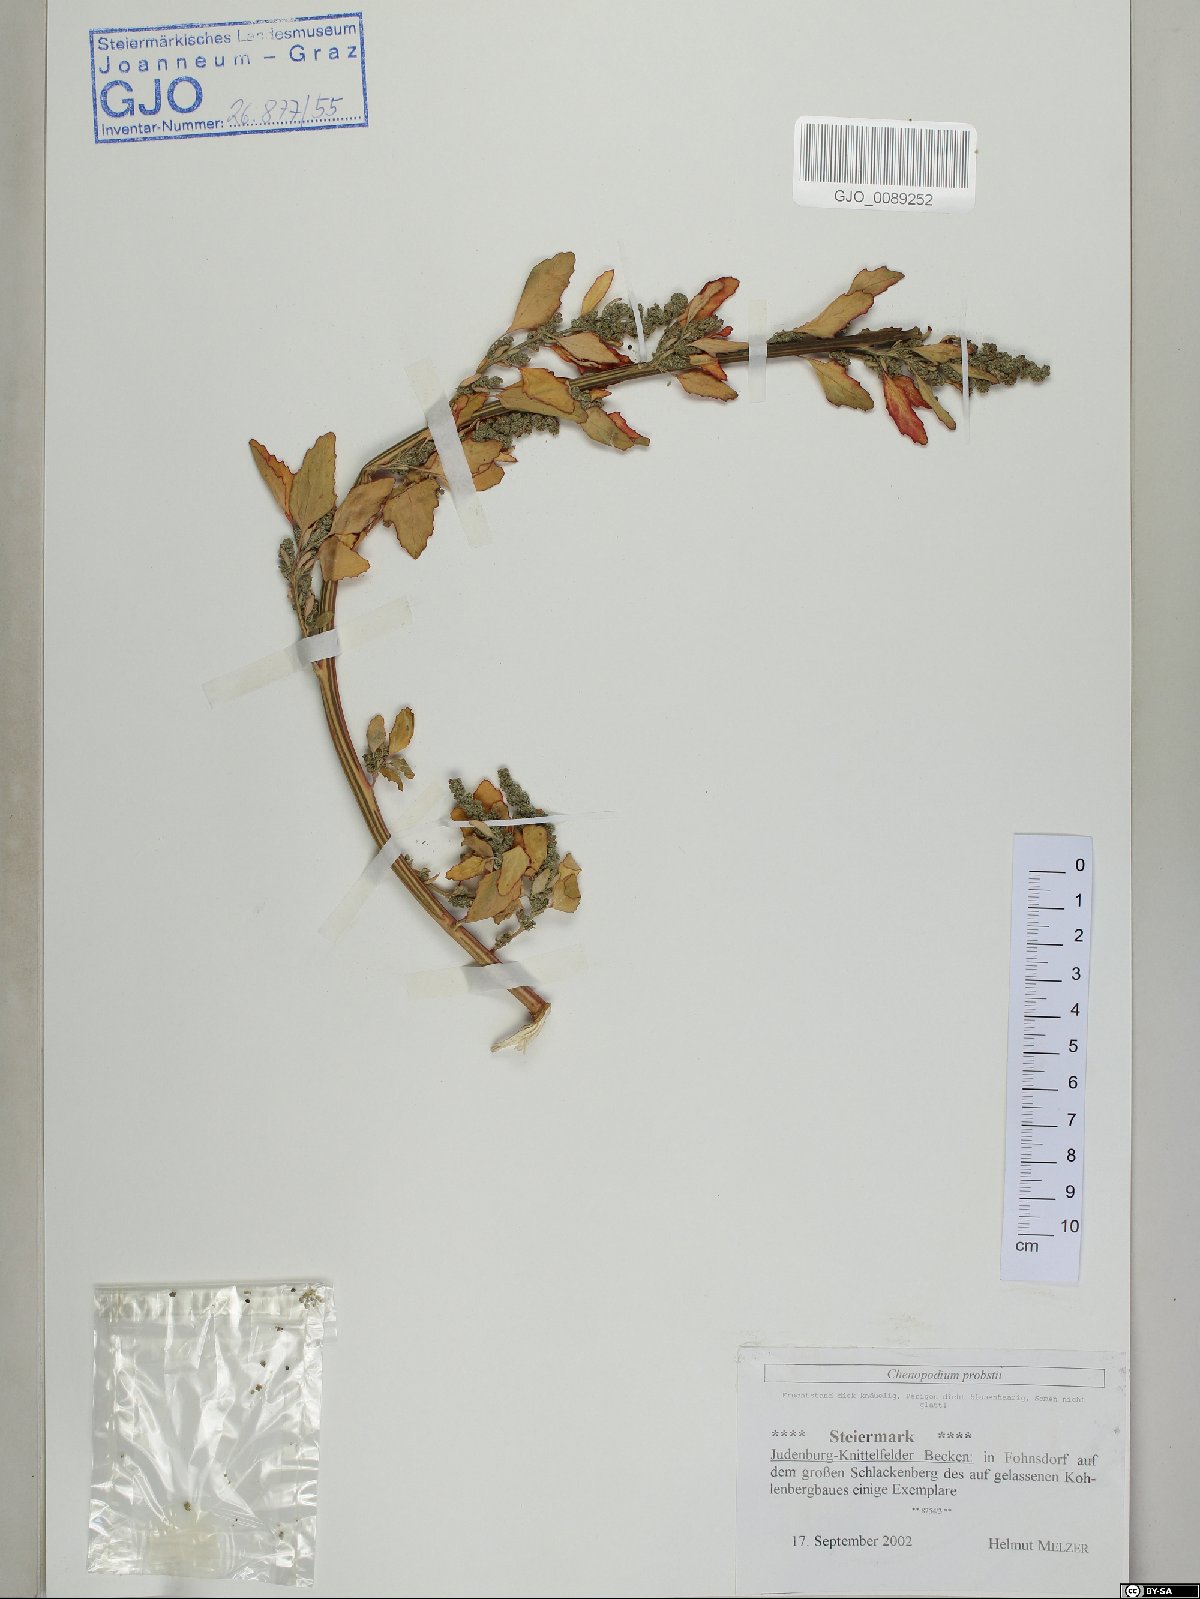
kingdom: Plantae
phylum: Tracheophyta
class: Magnoliopsida
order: Caryophyllales
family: Amaranthaceae
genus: Chenopodium
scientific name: Chenopodium probstii
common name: Probst's goosefoot
